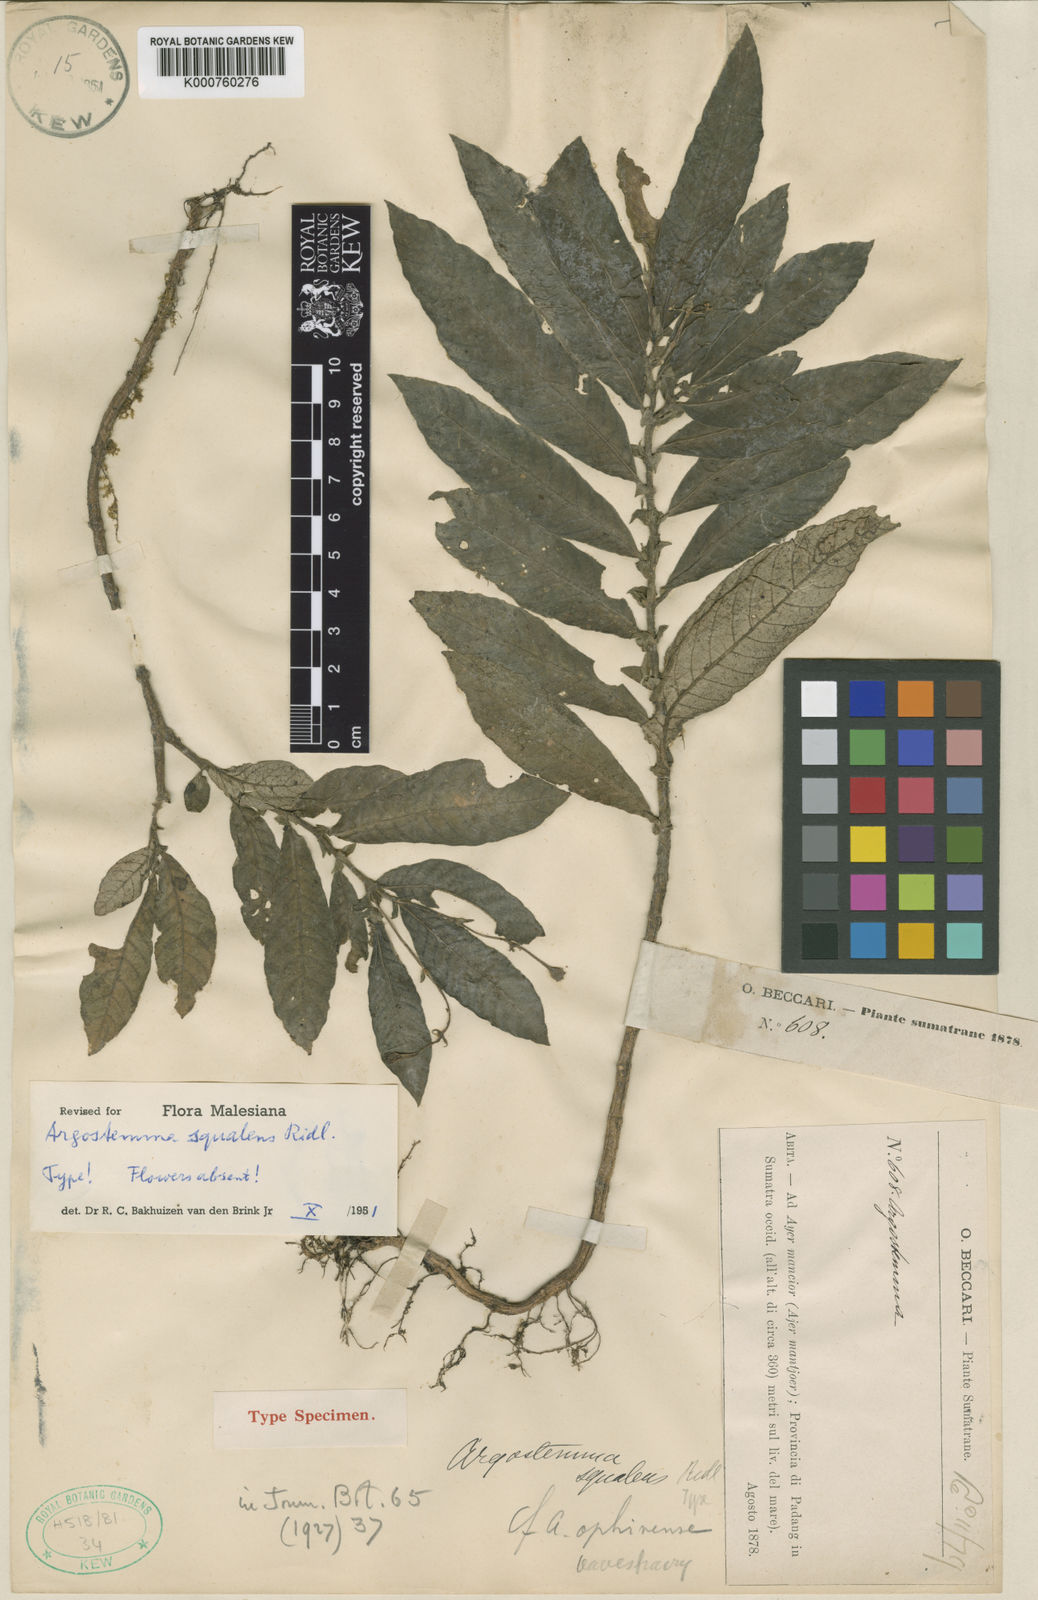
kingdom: Plantae
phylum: Tracheophyta
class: Magnoliopsida
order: Gentianales
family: Rubiaceae
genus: Argostemma
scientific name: Argostemma squalens
